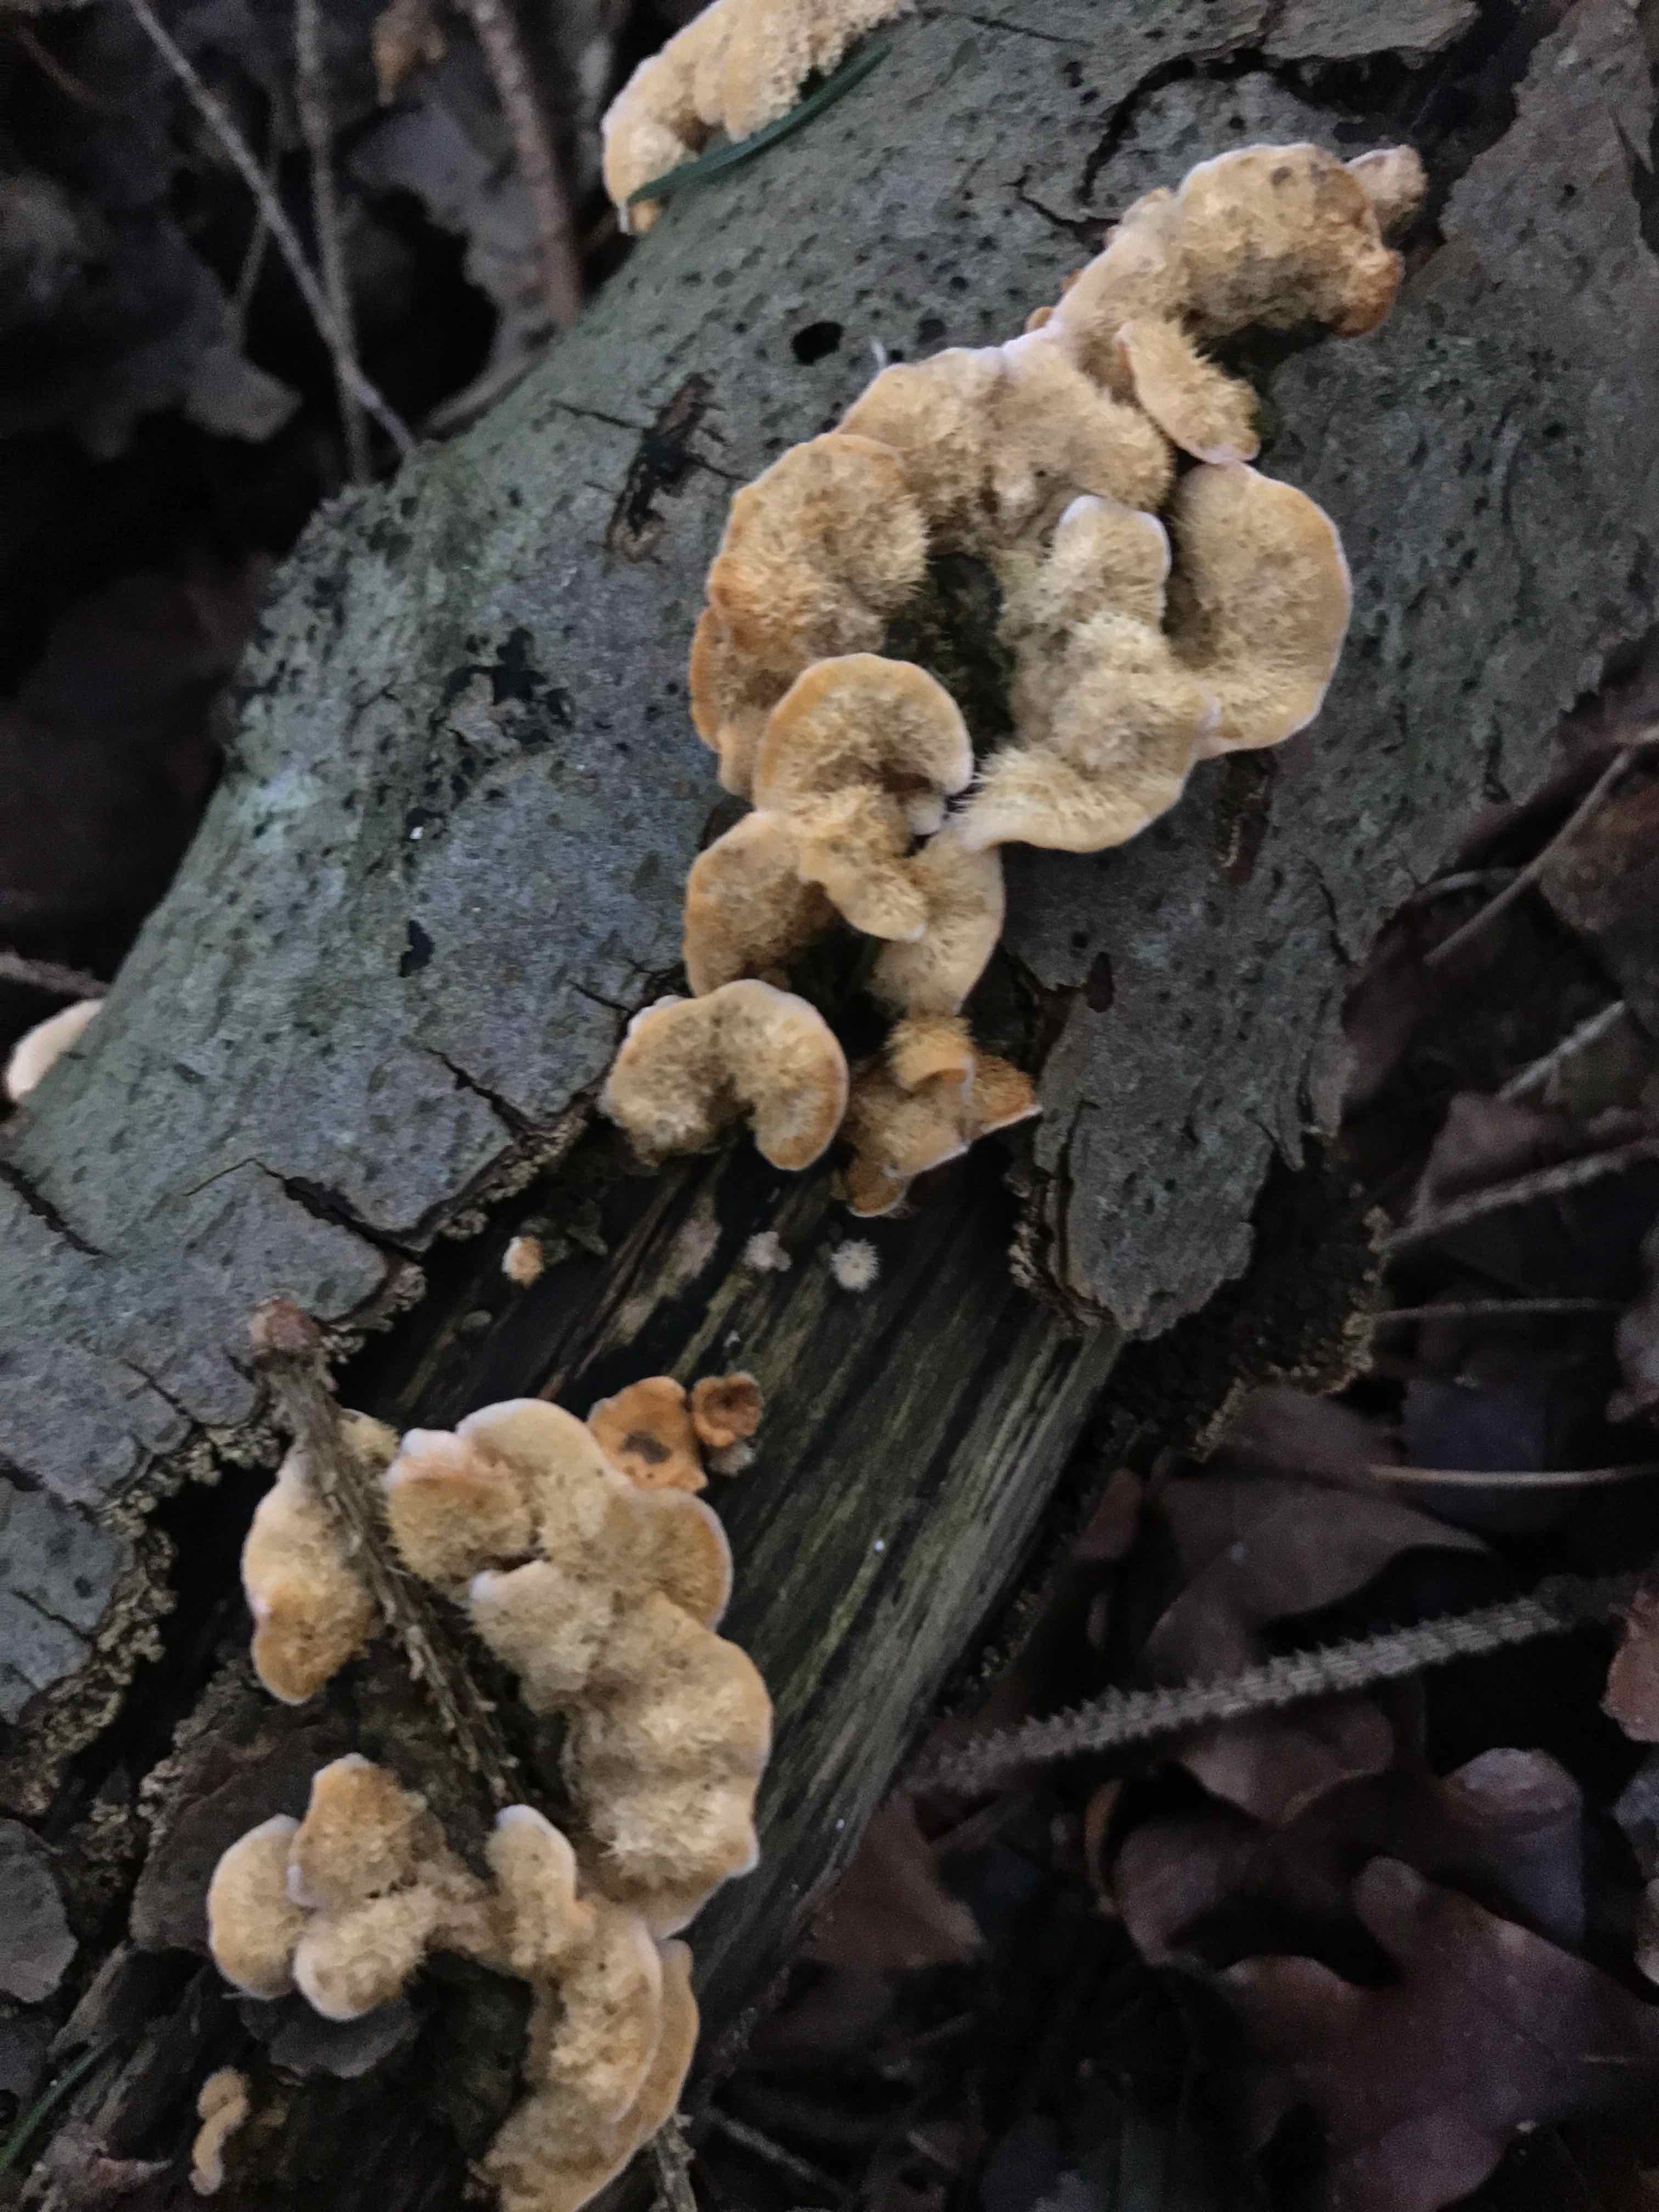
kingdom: Fungi
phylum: Basidiomycota
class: Agaricomycetes
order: Russulales
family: Stereaceae
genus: Stereum
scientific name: Stereum hirsutum
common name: håret lædersvamp
